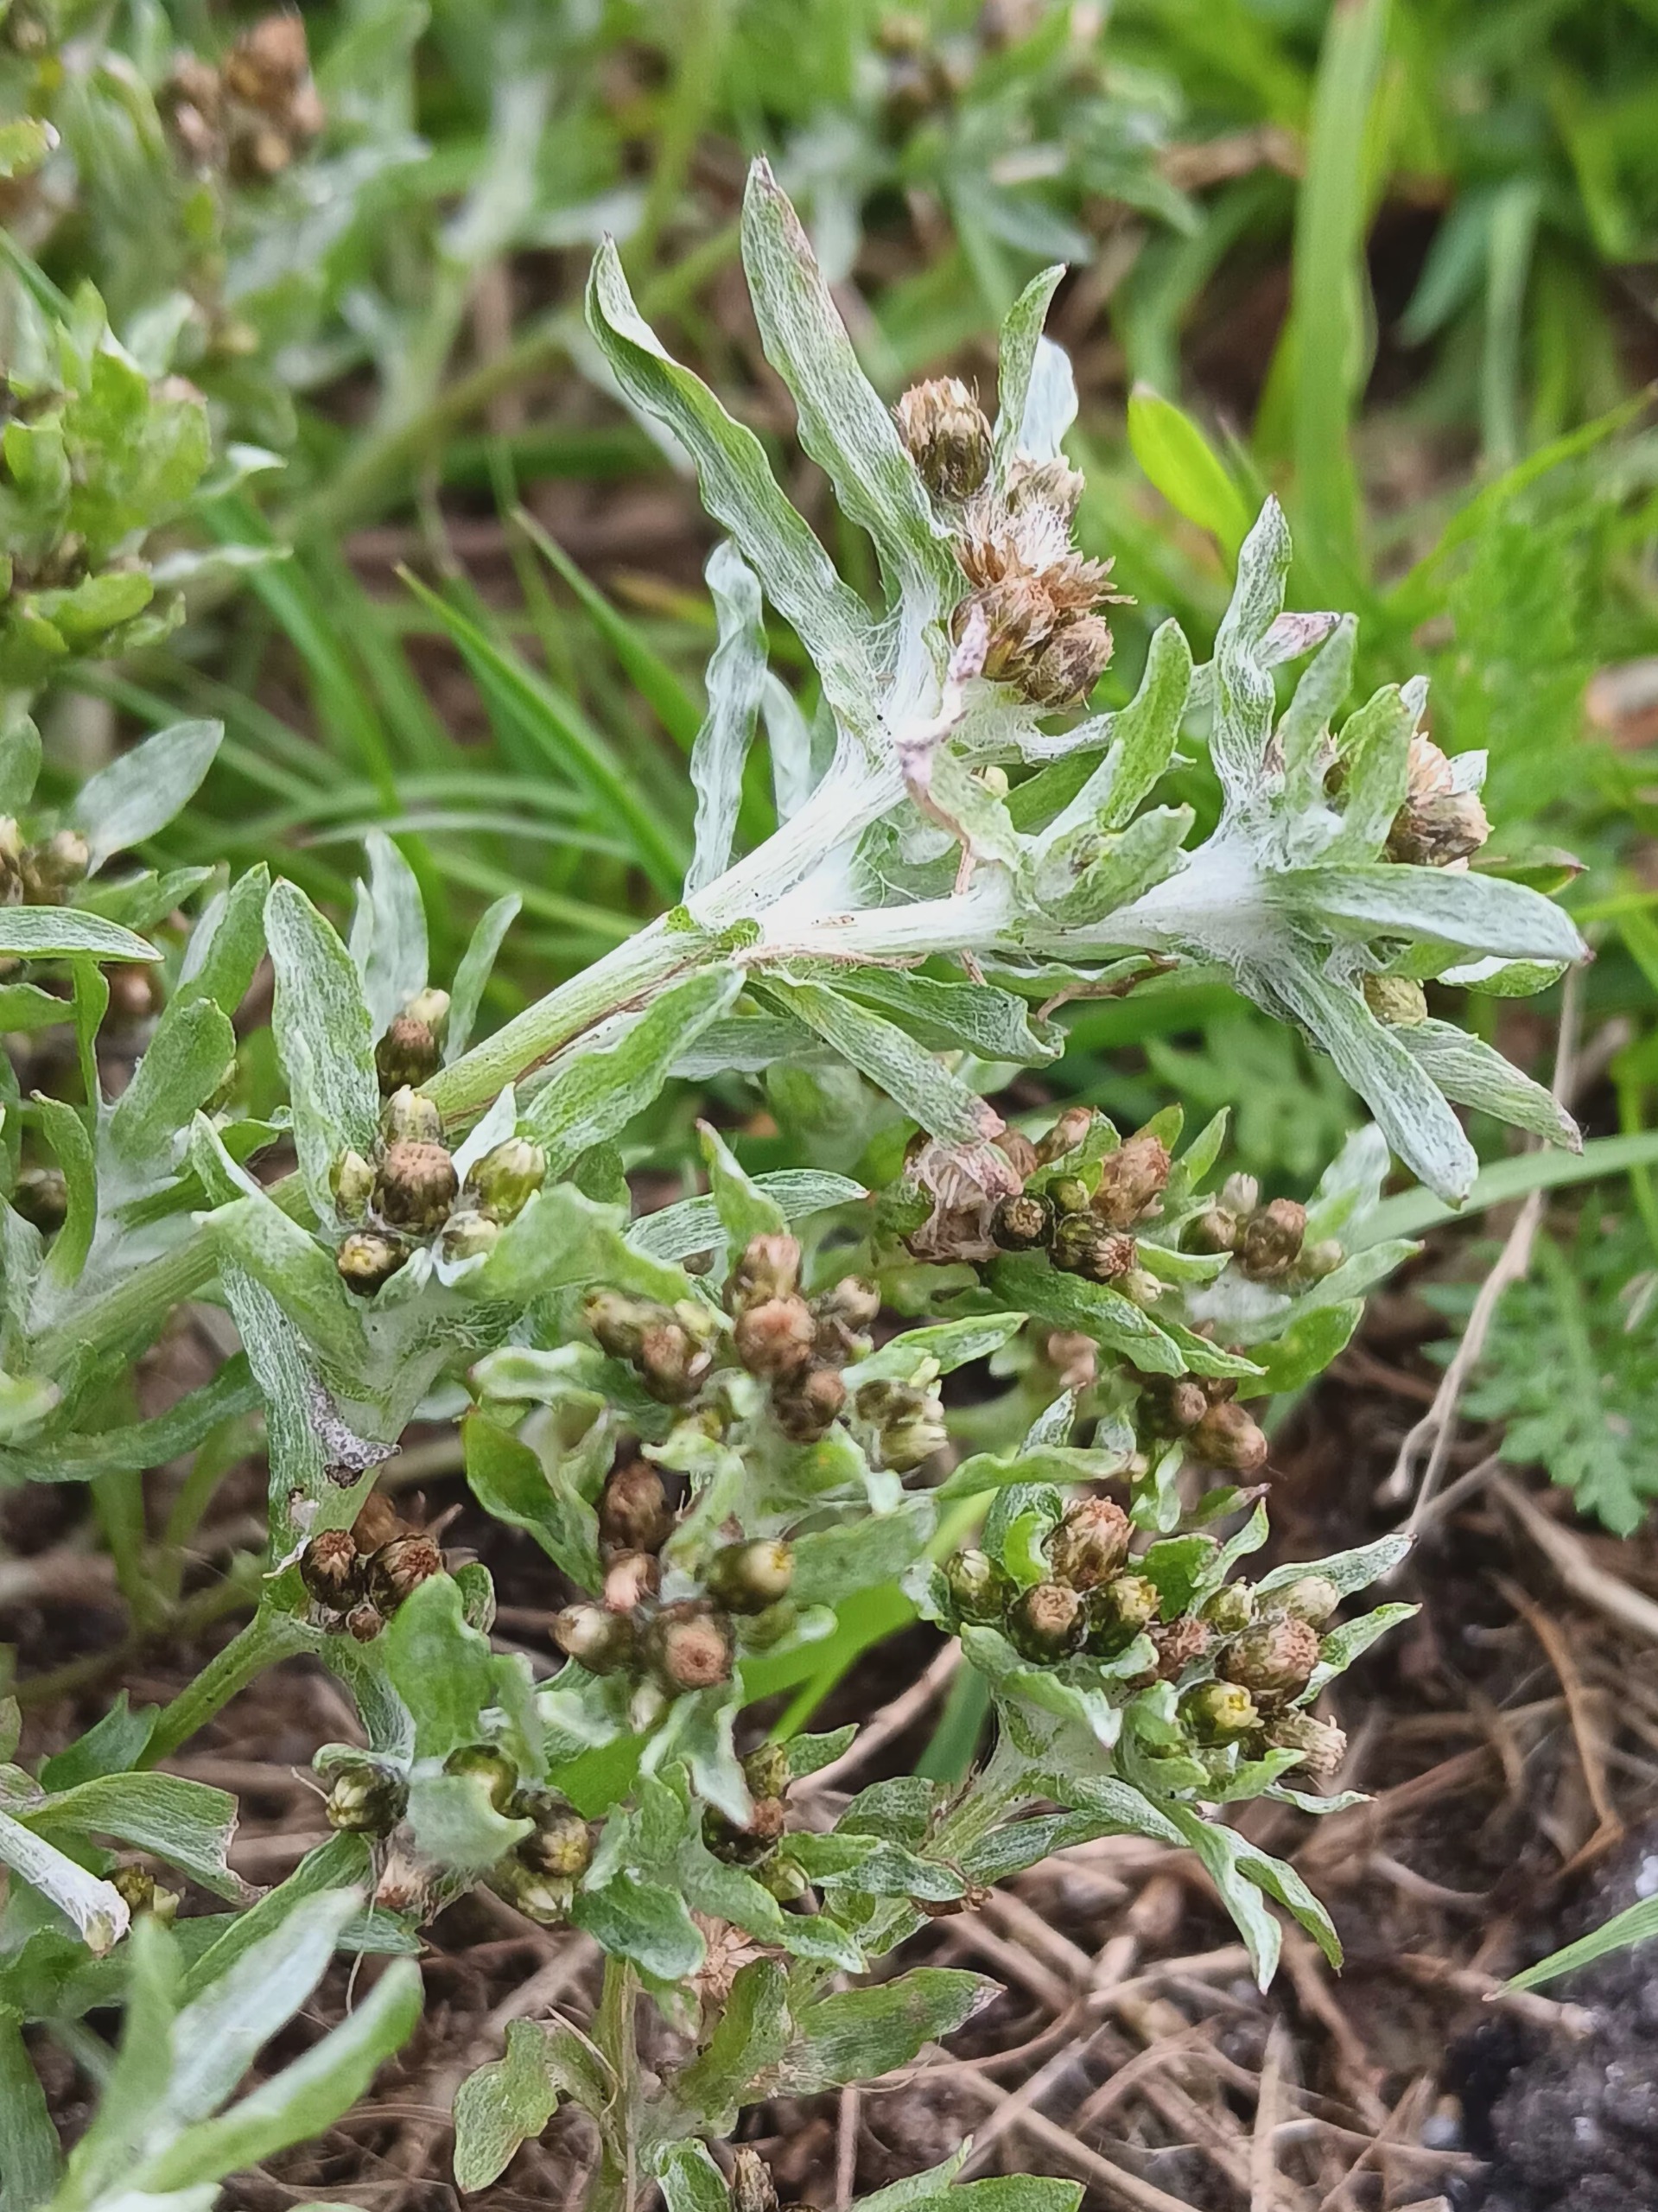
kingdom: Plantae
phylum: Tracheophyta
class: Magnoliopsida
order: Asterales
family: Asteraceae
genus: Gnaphalium
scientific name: Gnaphalium uliginosum
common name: Sump-evighedsblomst
